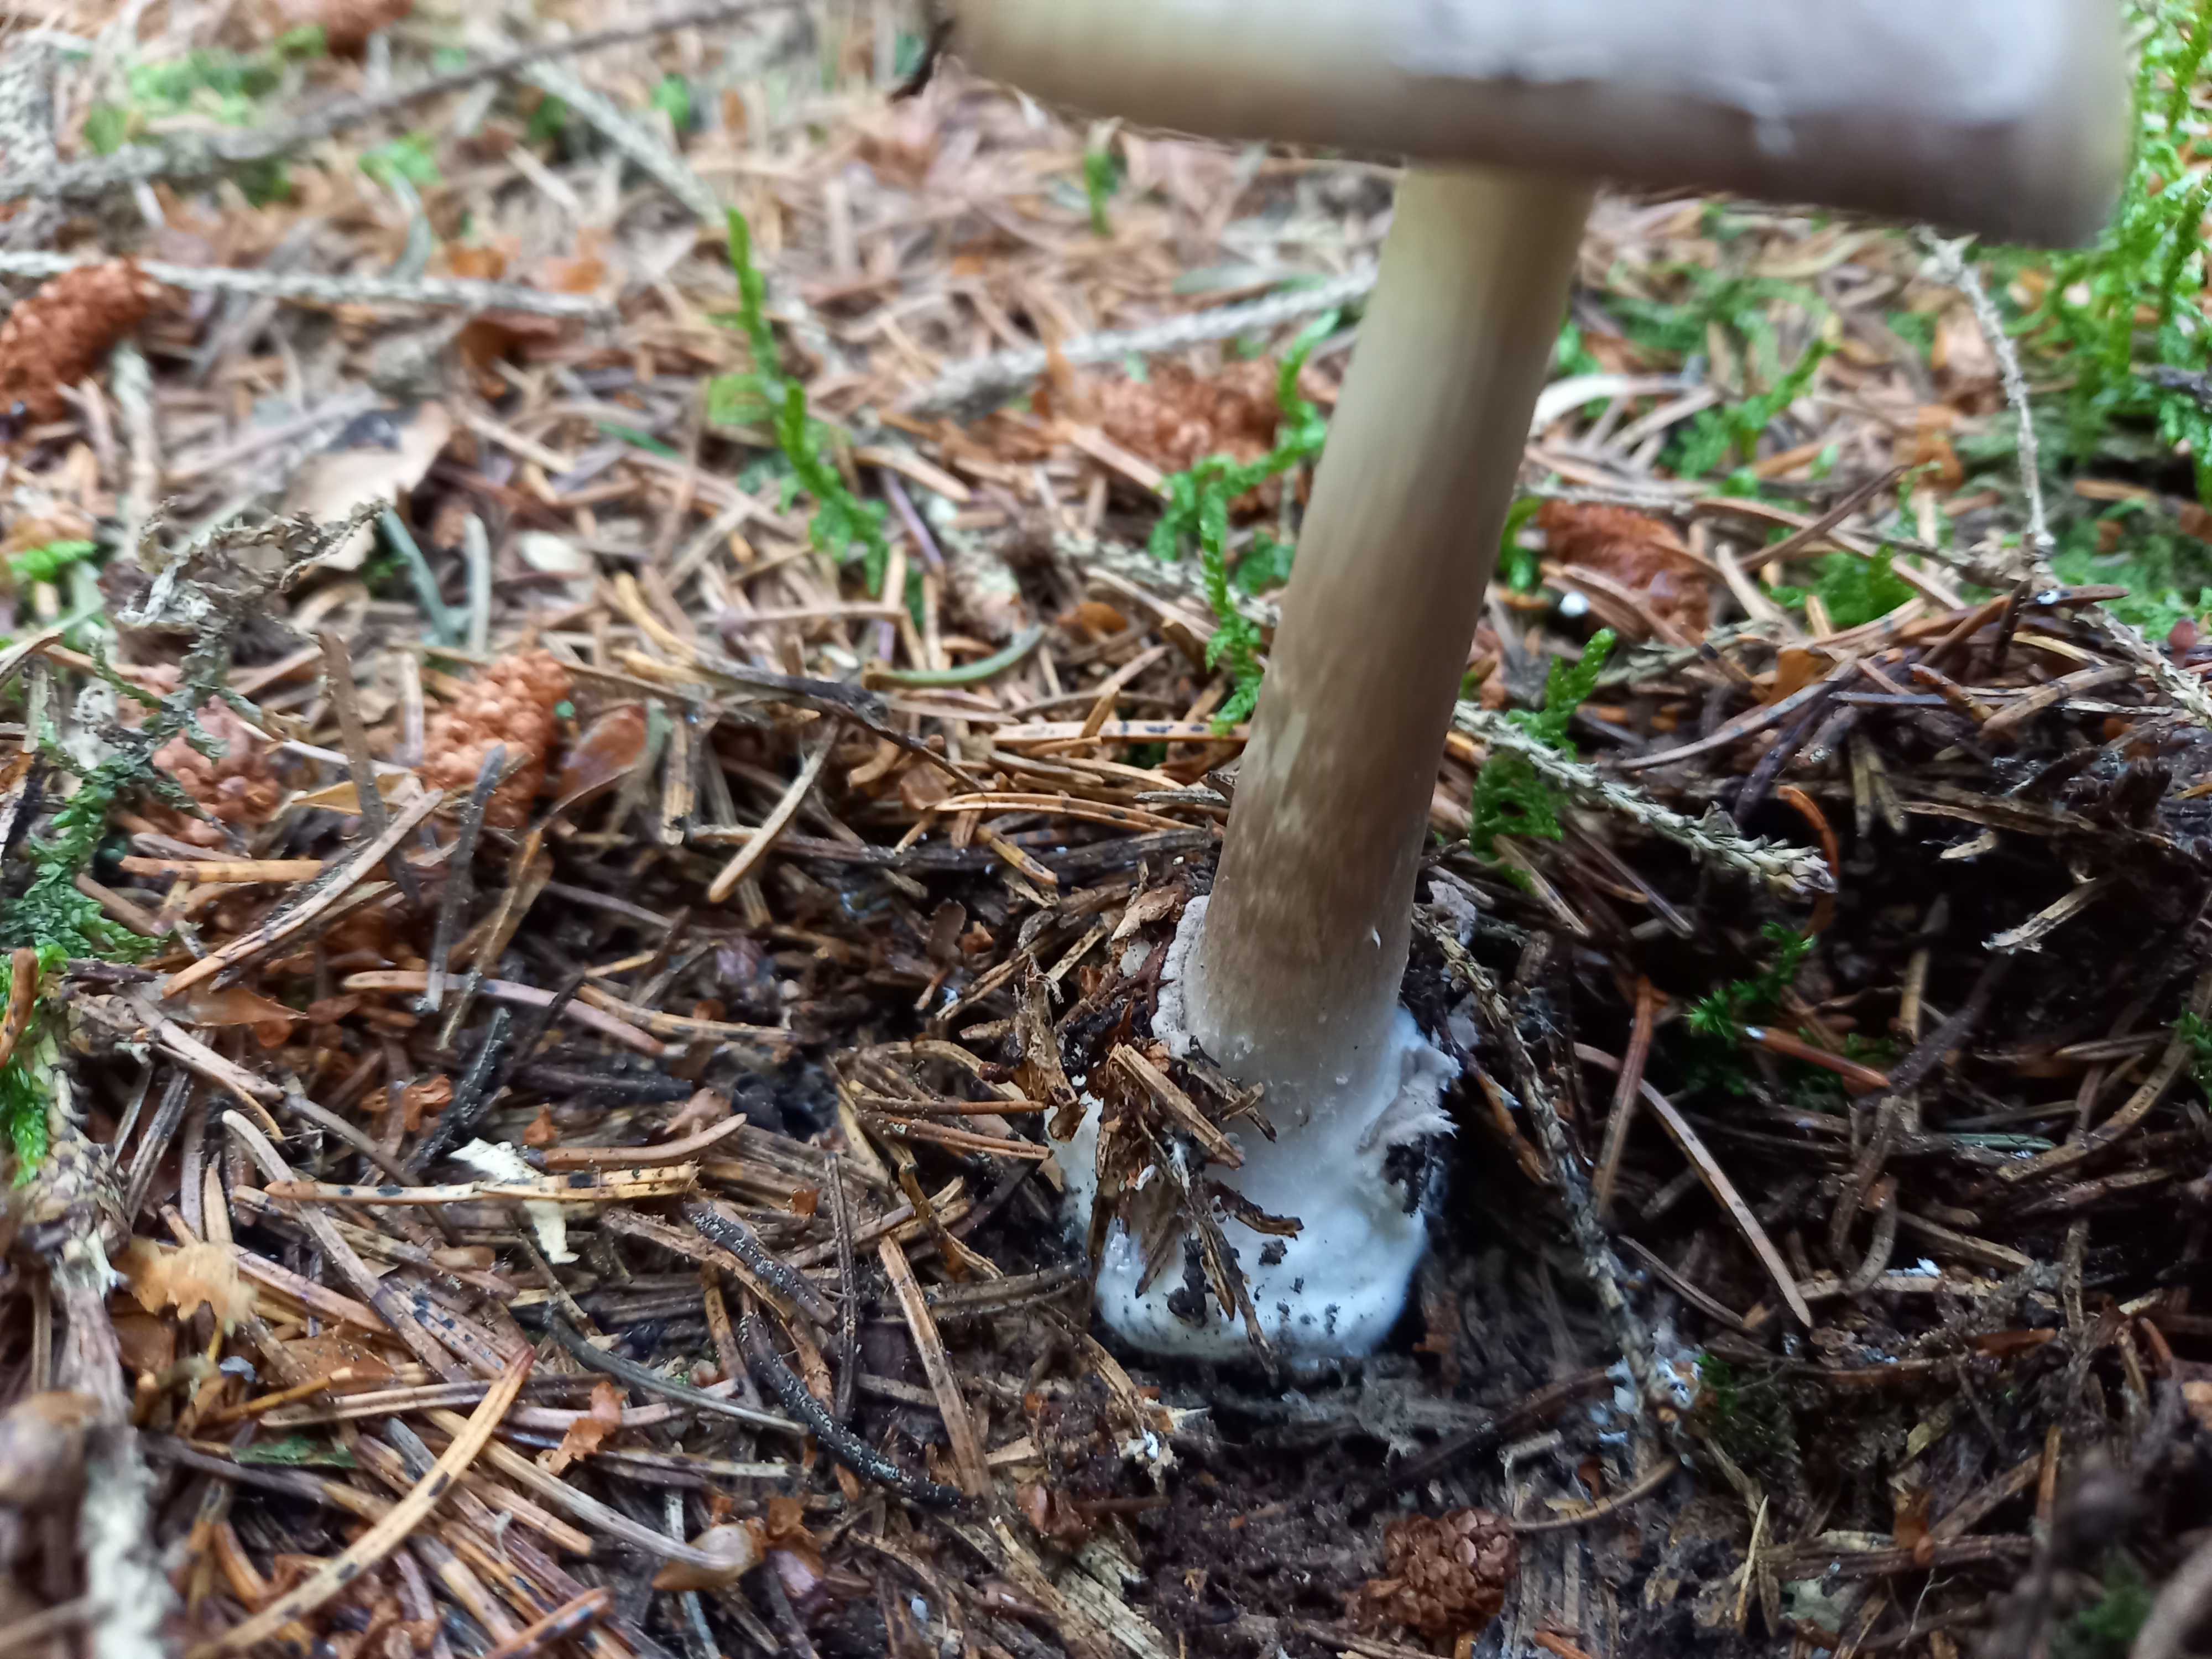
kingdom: Fungi
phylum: Basidiomycota
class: Agaricomycetes
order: Agaricales
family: Amanitaceae
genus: Amanita
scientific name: Amanita porphyria
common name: porfyr-fluesvamp
